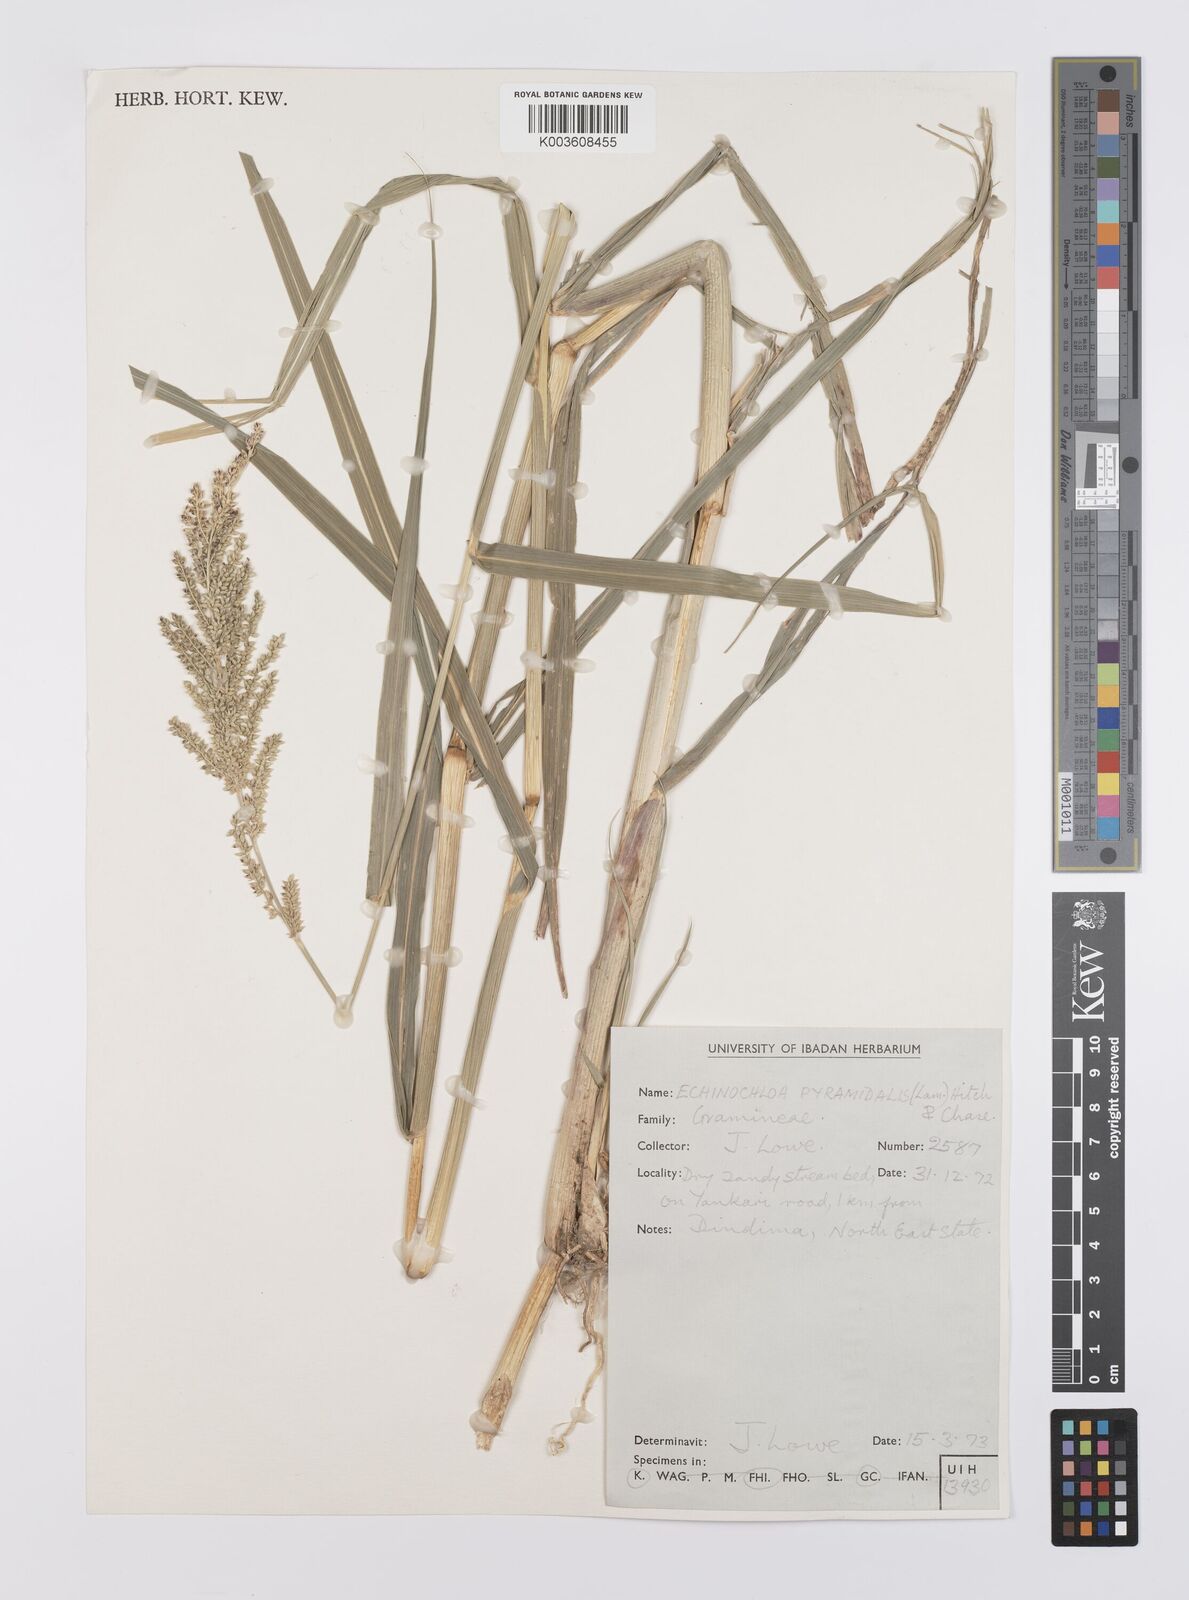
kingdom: Plantae
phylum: Tracheophyta
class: Liliopsida
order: Poales
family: Poaceae
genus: Echinochloa
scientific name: Echinochloa pyramidalis
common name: Antelope grass
